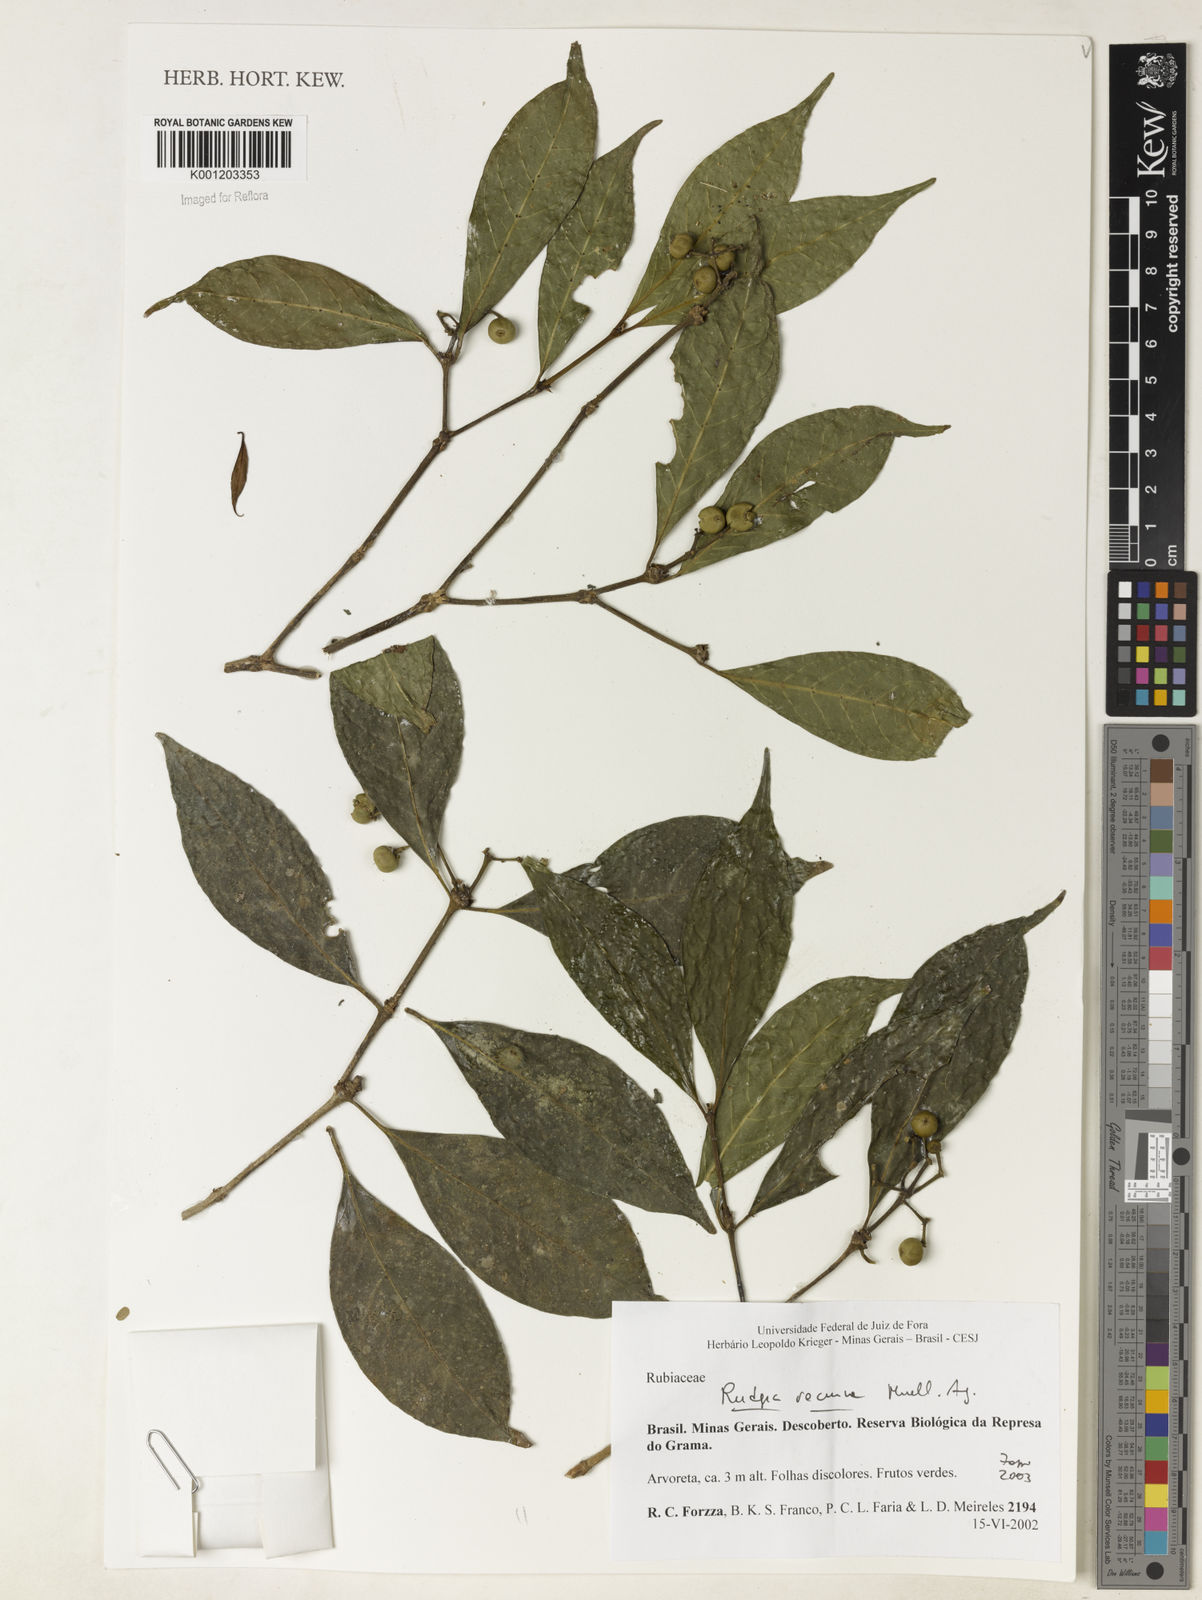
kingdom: Plantae
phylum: Tracheophyta
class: Magnoliopsida
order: Gentianales
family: Rubiaceae
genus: Rudgea
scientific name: Rudgea
